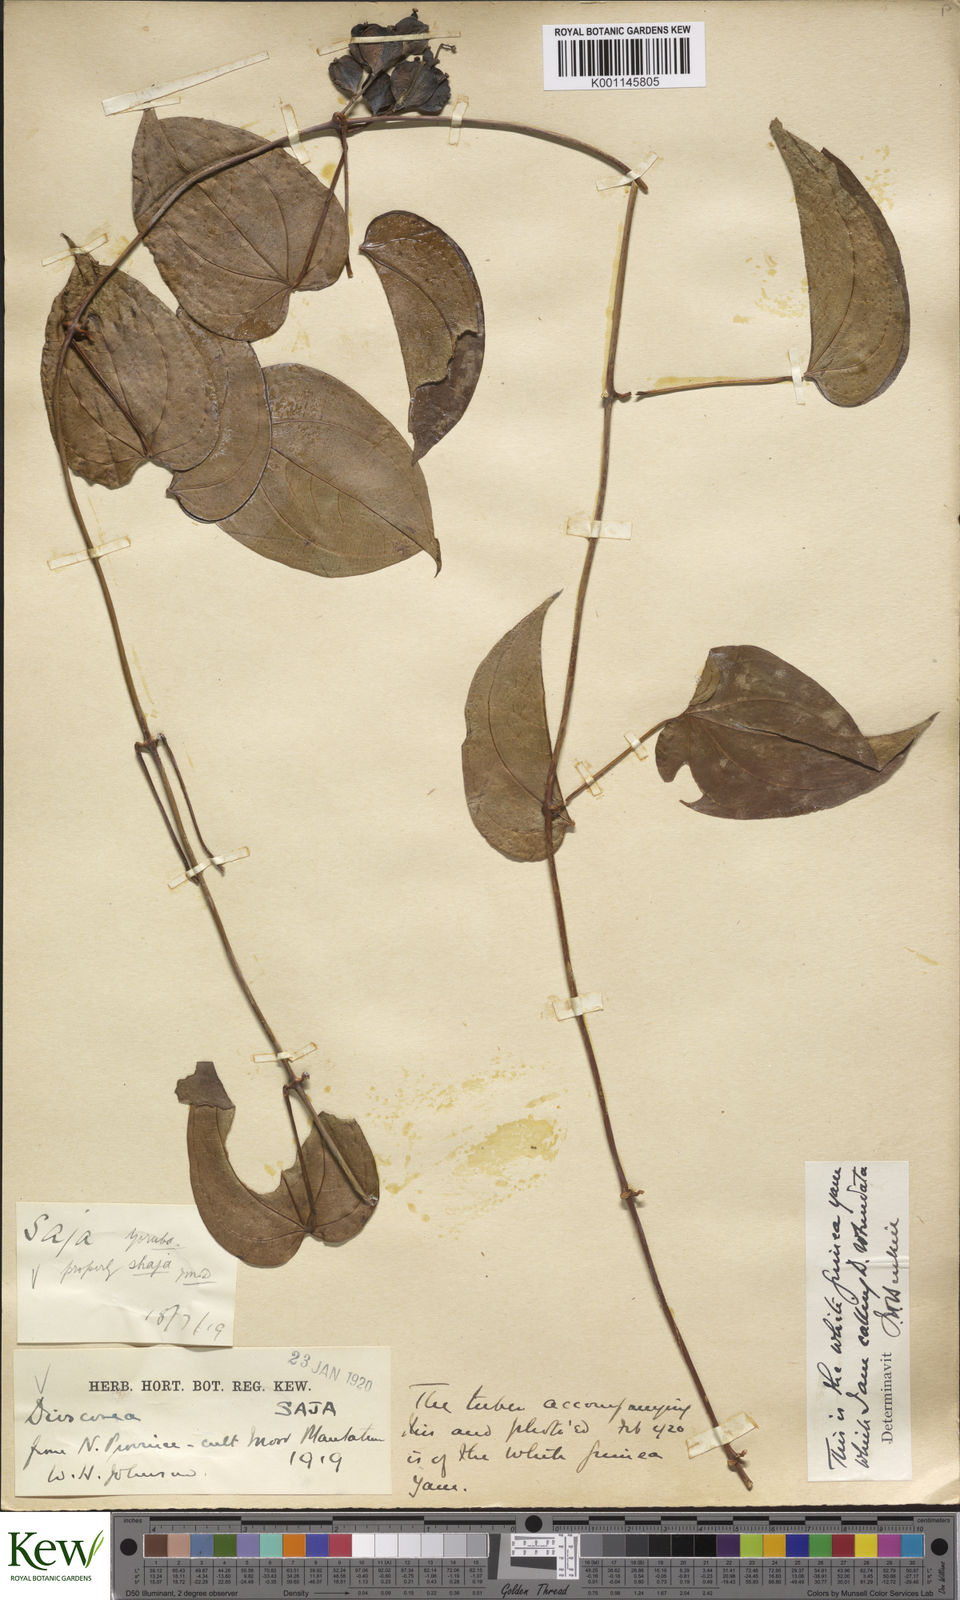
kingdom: Plantae
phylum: Tracheophyta
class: Liliopsida
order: Dioscoreales
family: Dioscoreaceae
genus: Dioscorea
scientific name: Dioscorea cayenensis
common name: Attoto yam
